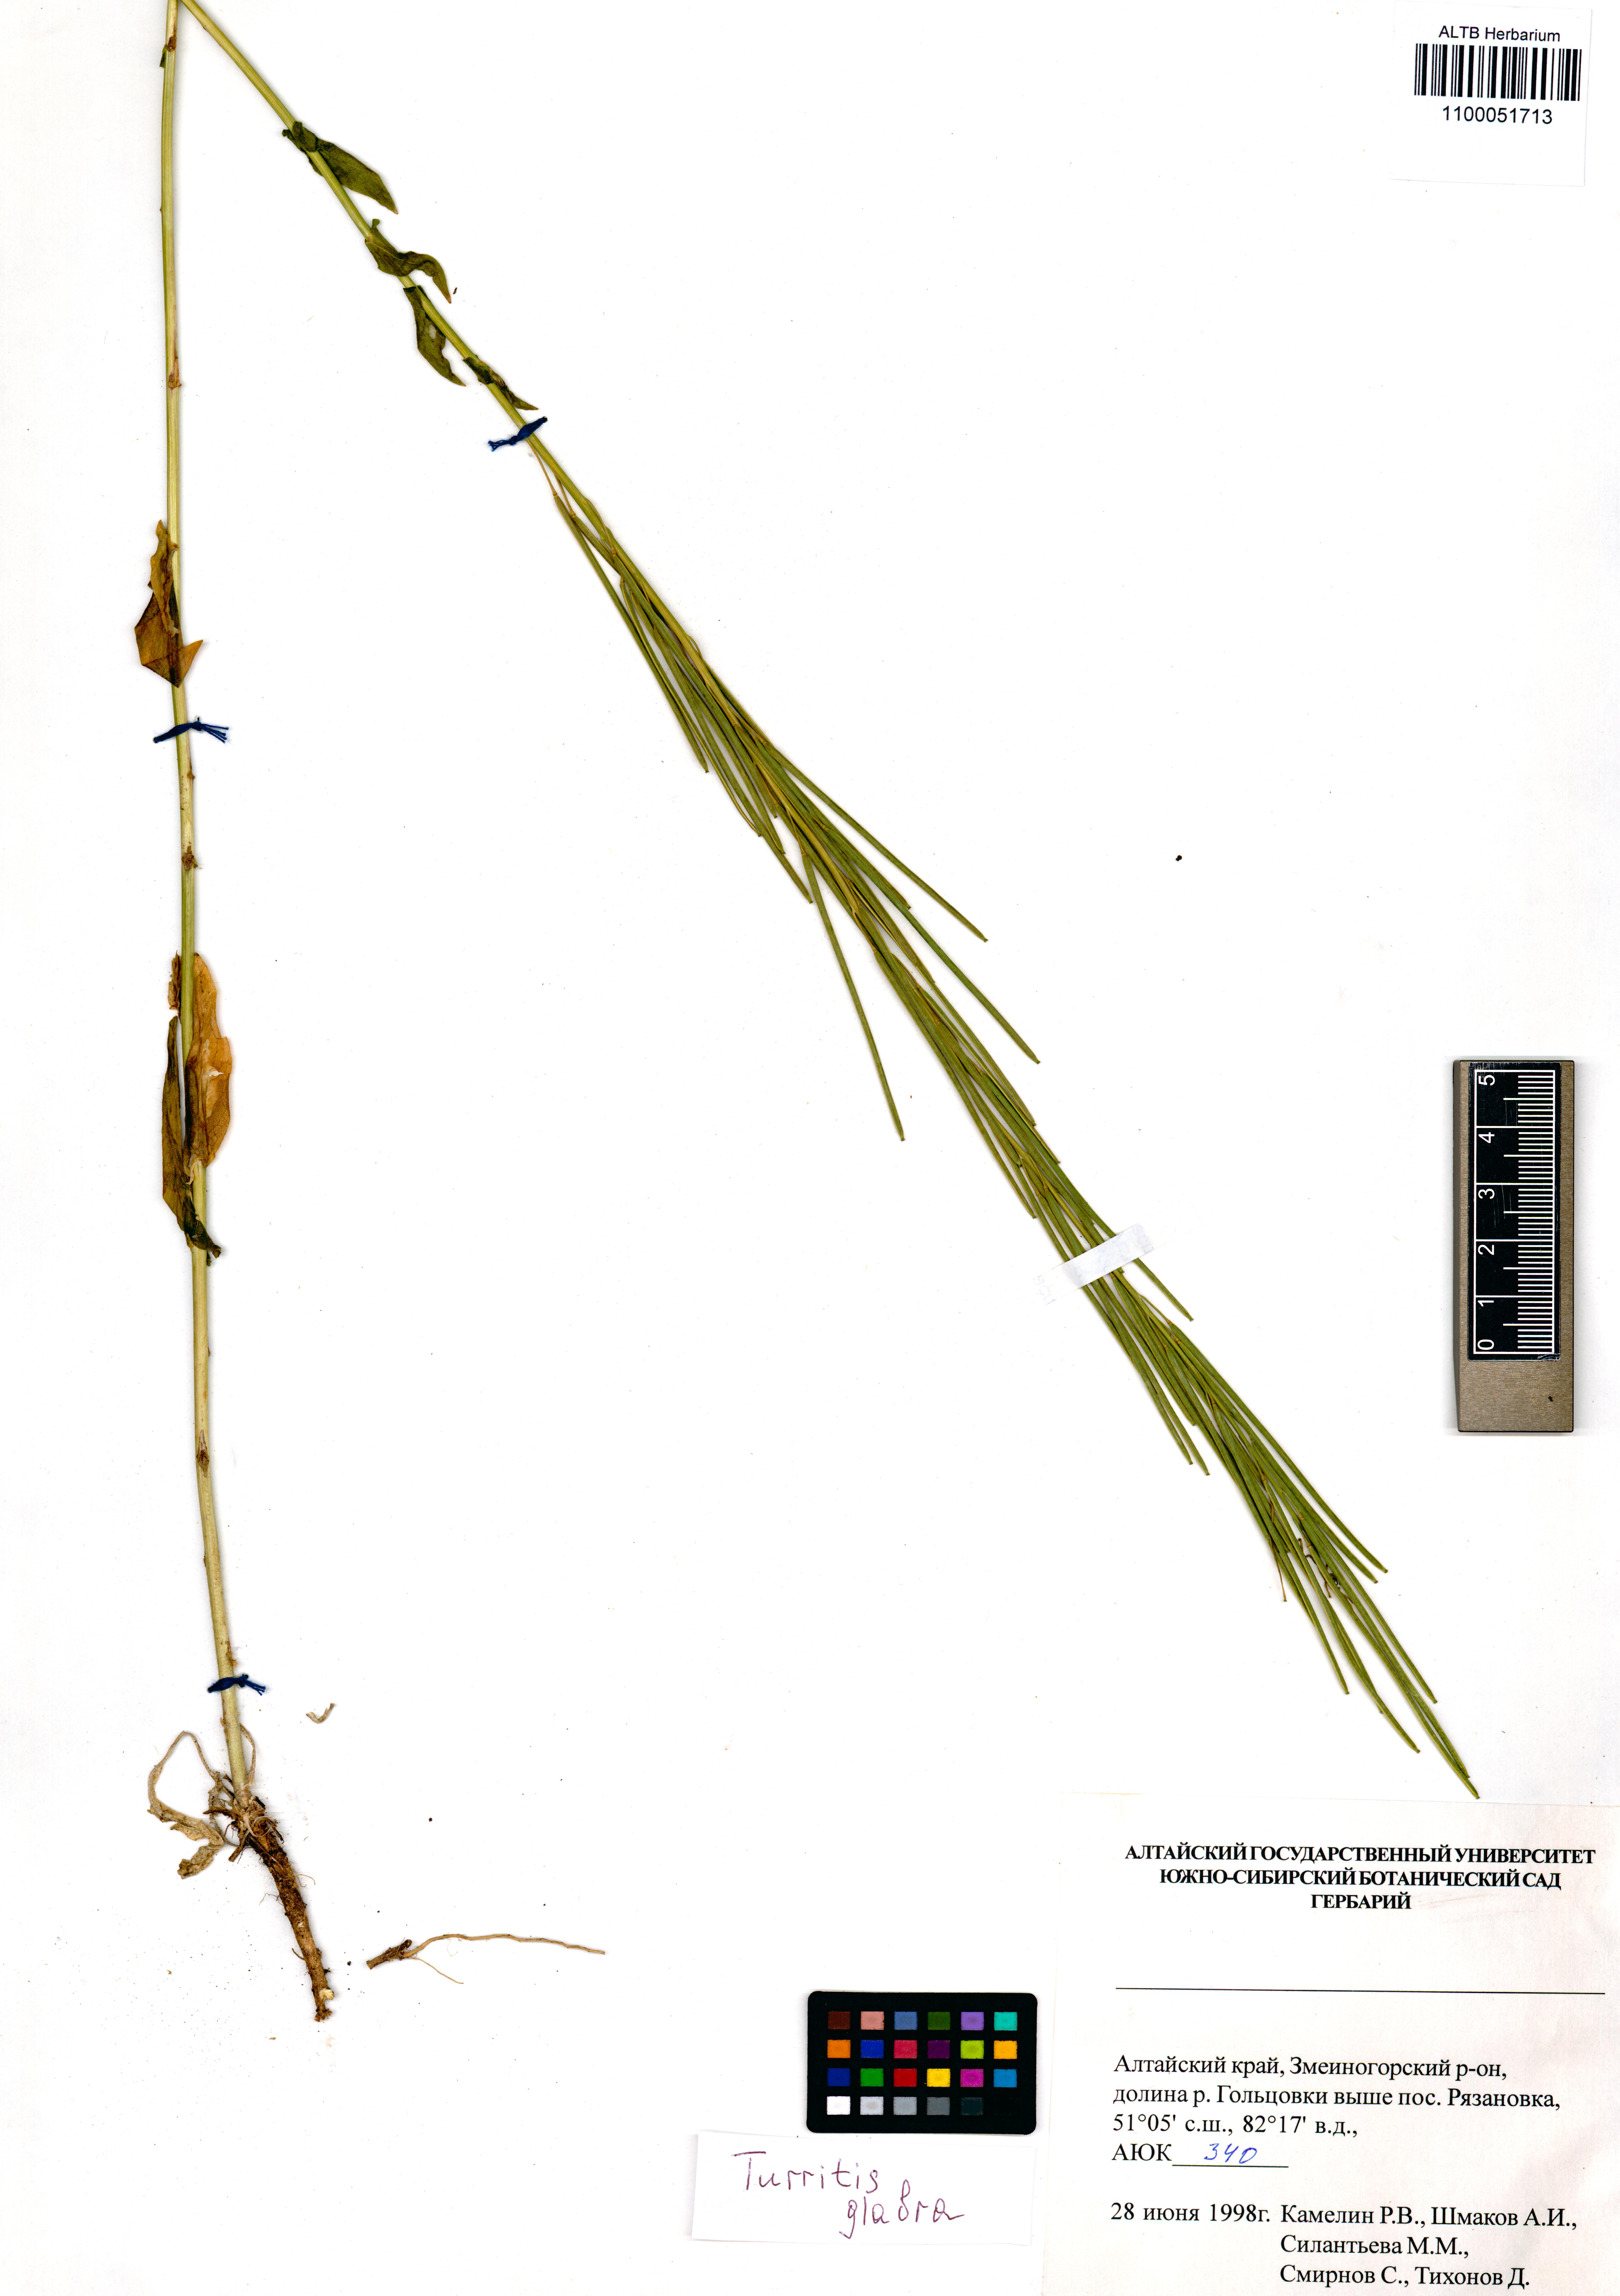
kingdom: Plantae
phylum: Tracheophyta
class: Magnoliopsida
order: Brassicales
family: Brassicaceae
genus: Turritis
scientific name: Turritis glabra
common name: Tower rockcress
